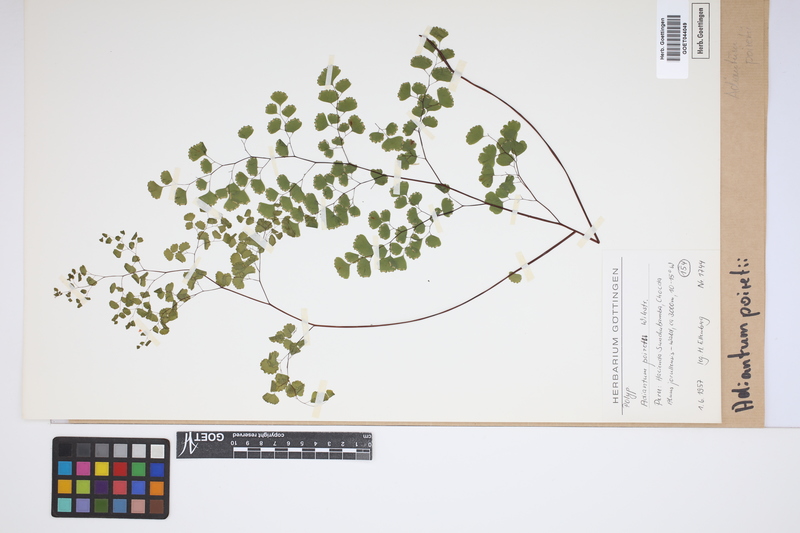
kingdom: Plantae
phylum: Tracheophyta
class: Polypodiopsida
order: Polypodiales
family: Pteridaceae
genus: Adiantum
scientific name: Adiantum poiretii
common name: Mexican maidenhair
